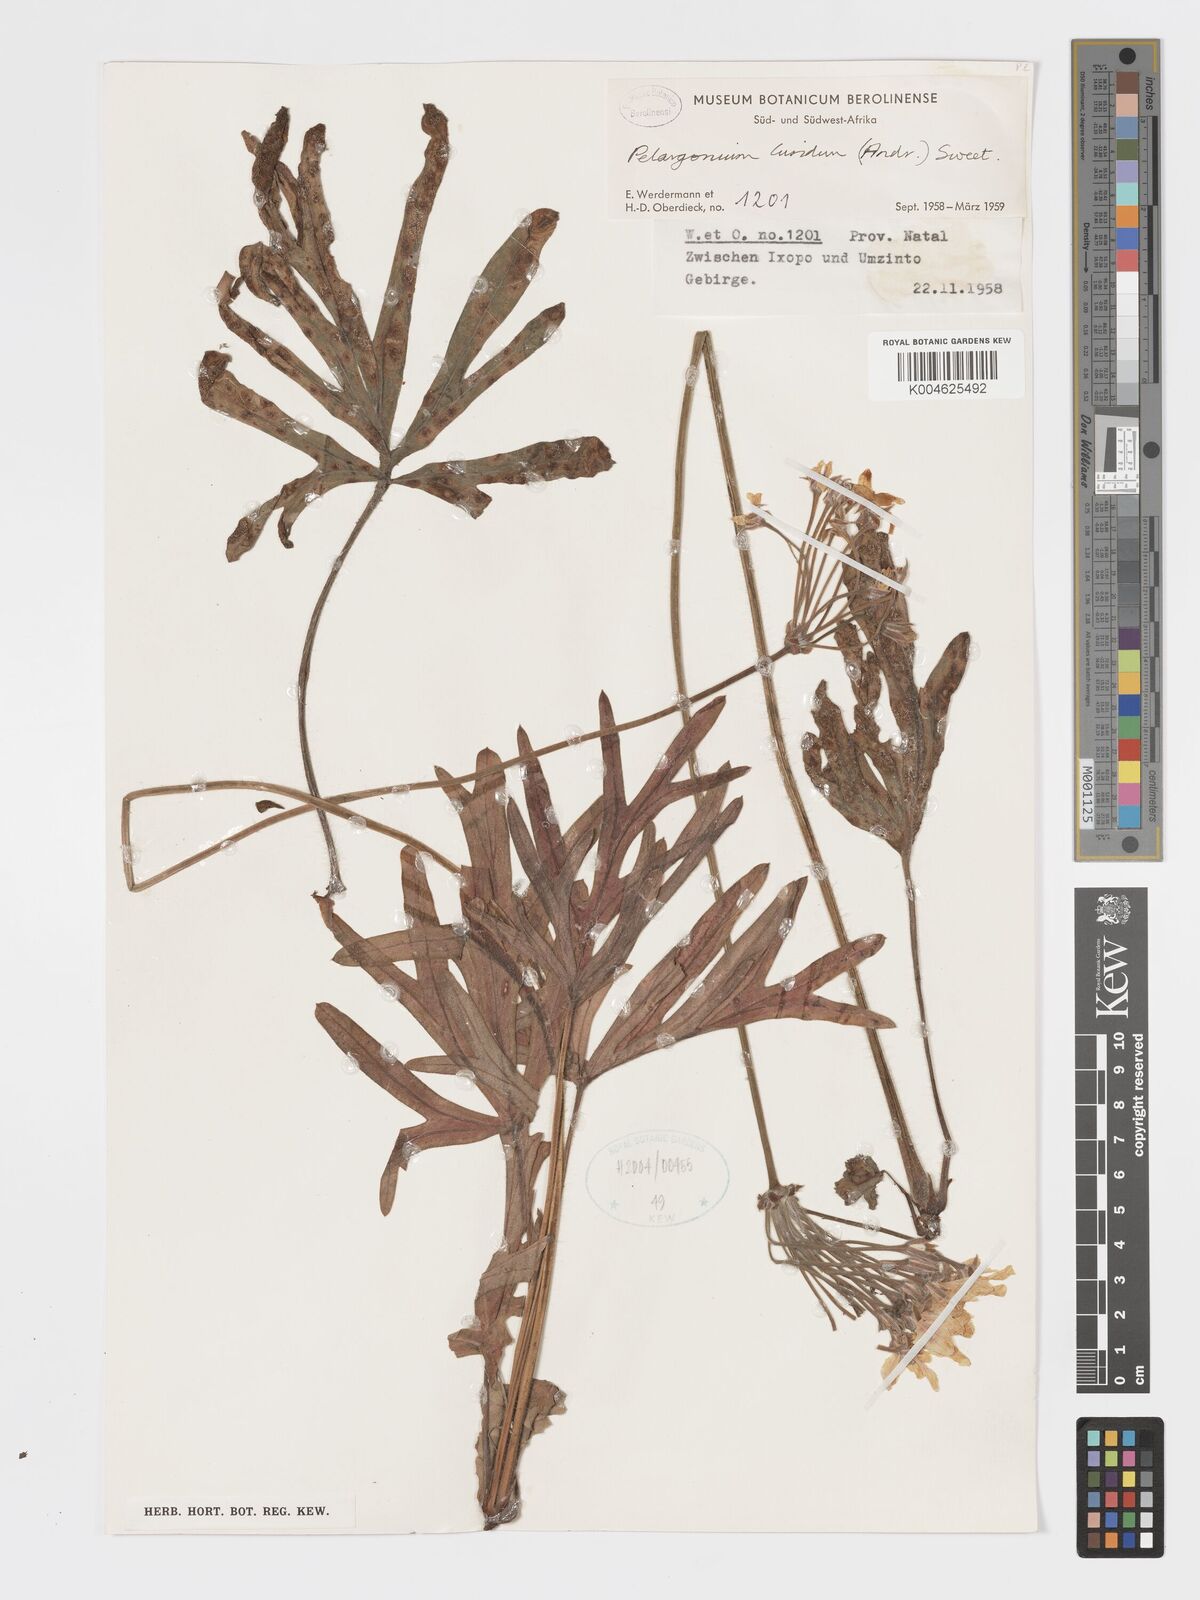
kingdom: Plantae
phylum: Tracheophyta
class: Magnoliopsida
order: Geraniales
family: Geraniaceae
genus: Pelargonium
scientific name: Pelargonium luridum
